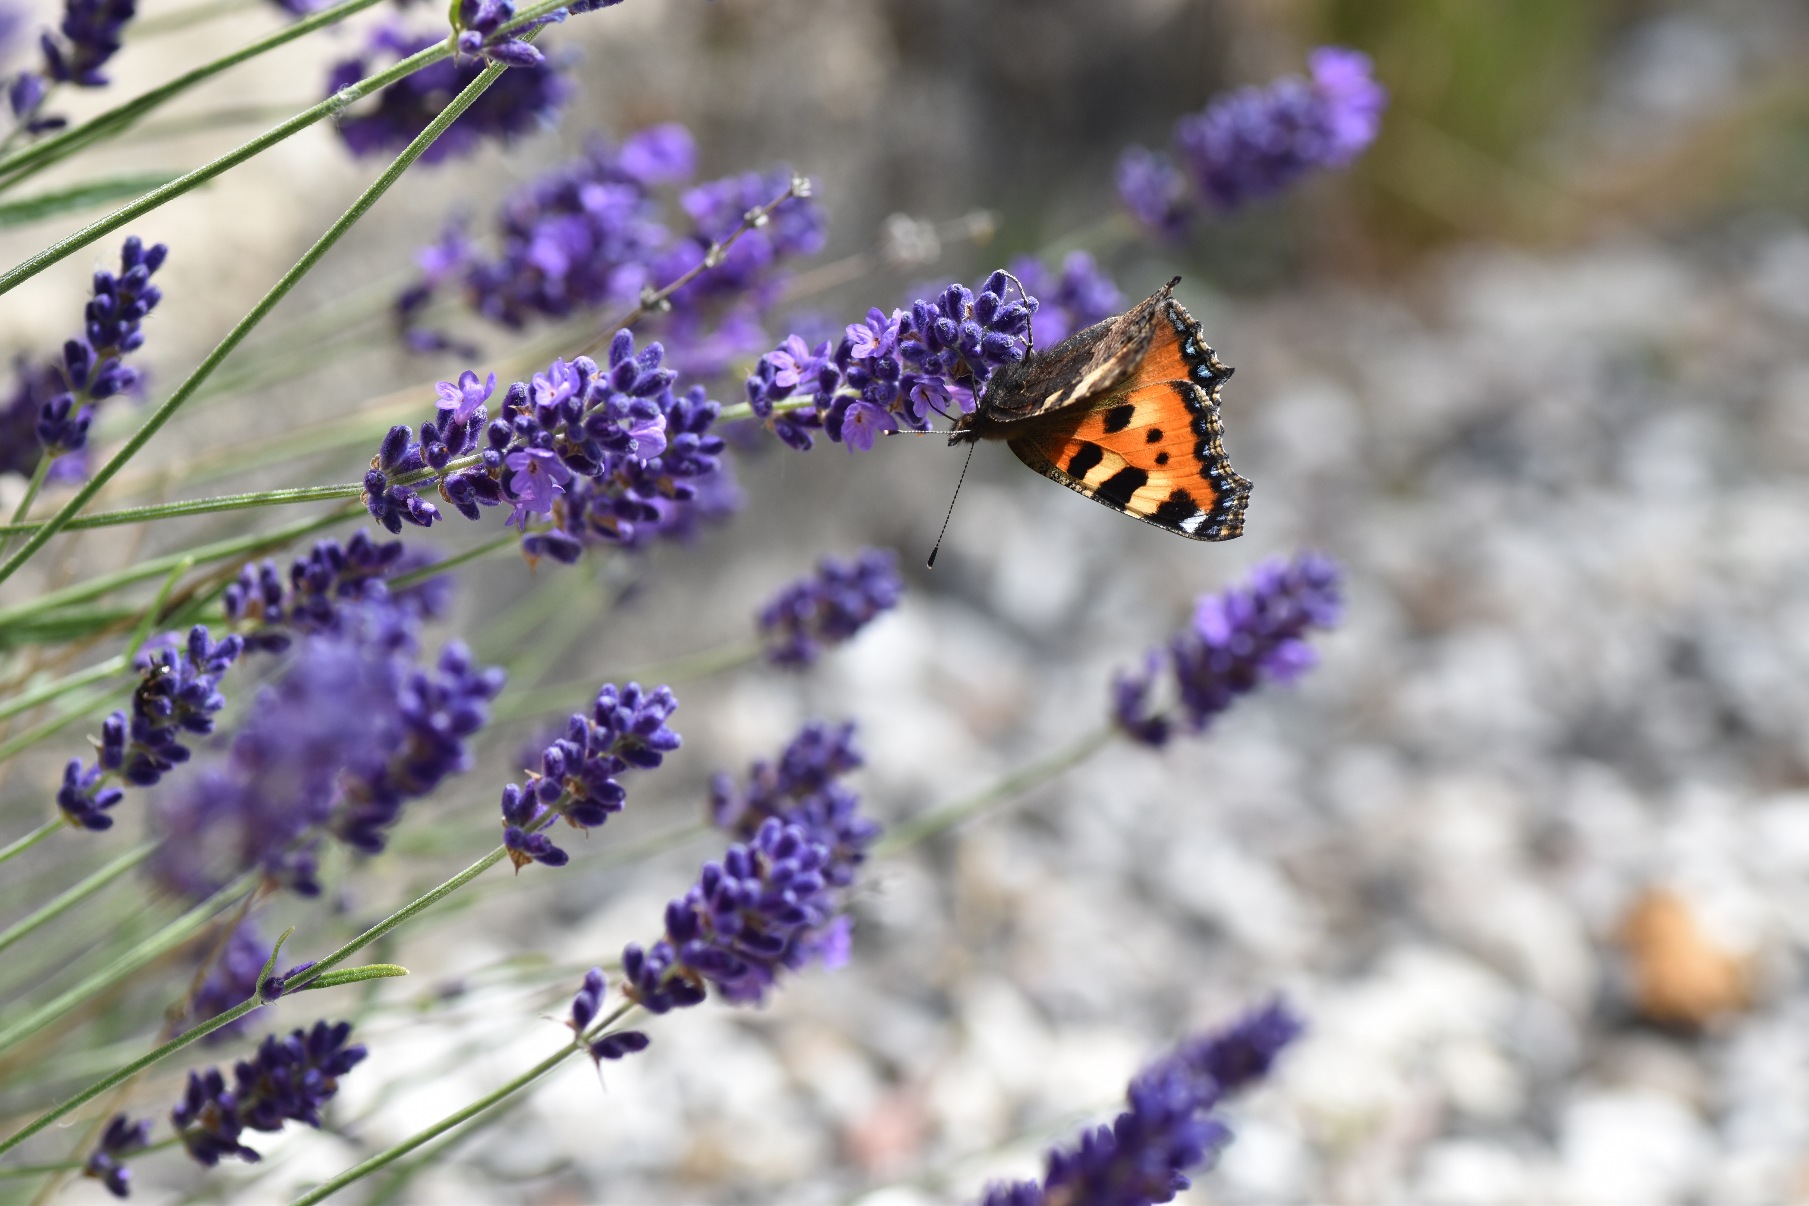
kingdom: Animalia
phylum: Arthropoda
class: Insecta
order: Lepidoptera
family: Nymphalidae
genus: Aglais
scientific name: Aglais urticae
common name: Nældens takvinge
